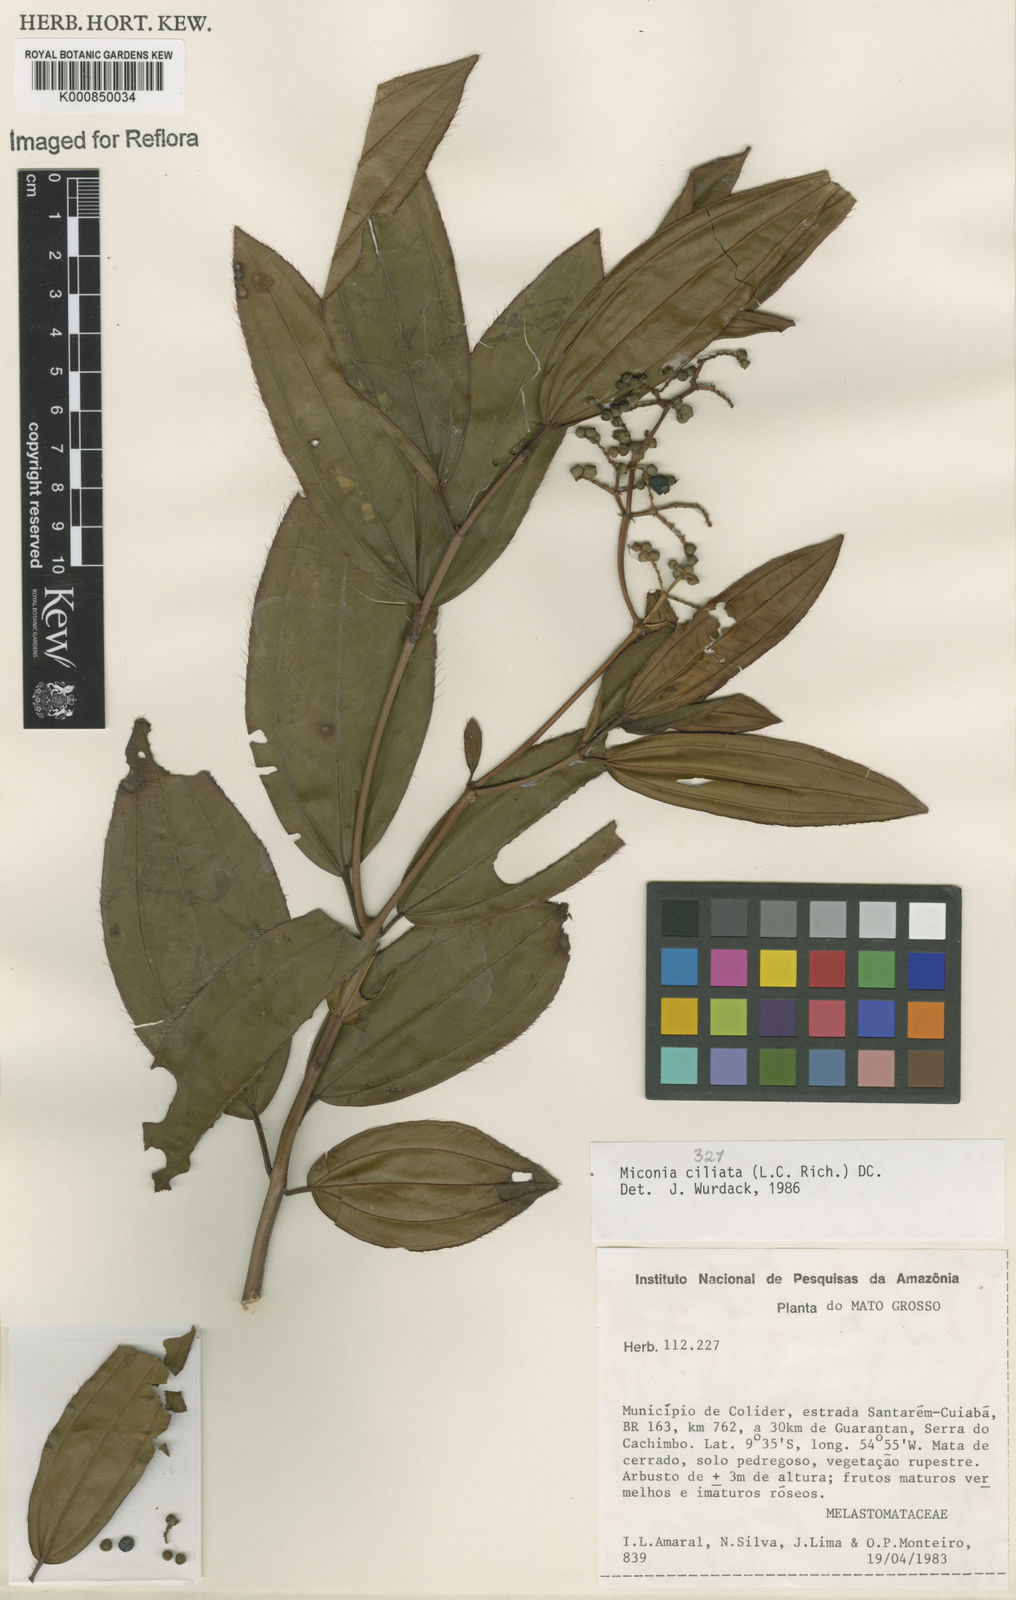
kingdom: Plantae
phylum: Tracheophyta
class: Magnoliopsida
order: Myrtales
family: Melastomataceae
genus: Miconia
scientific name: Miconia ciliata
